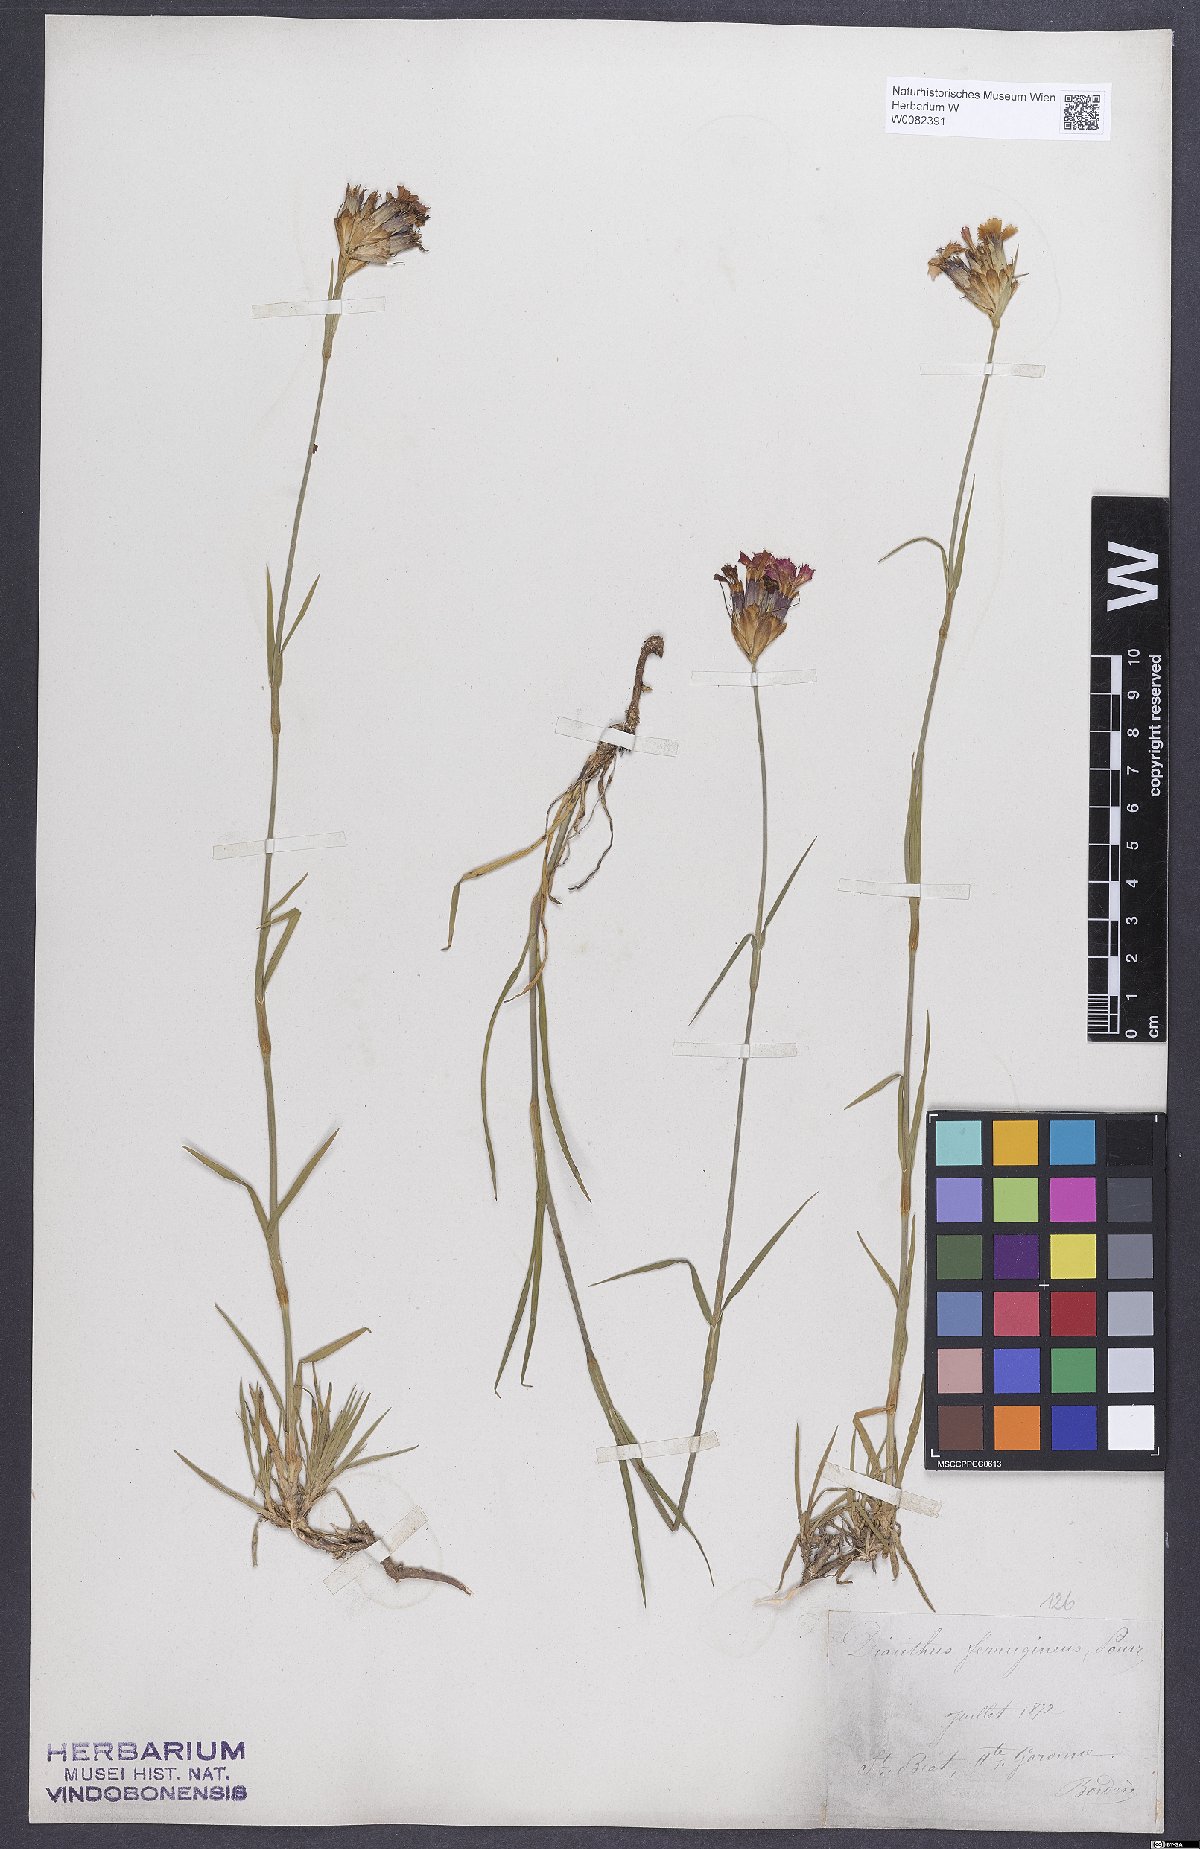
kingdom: Plantae
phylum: Tracheophyta
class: Magnoliopsida
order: Caryophyllales
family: Caryophyllaceae
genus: Dianthus
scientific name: Dianthus carthusianorum
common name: Carthusian pink
